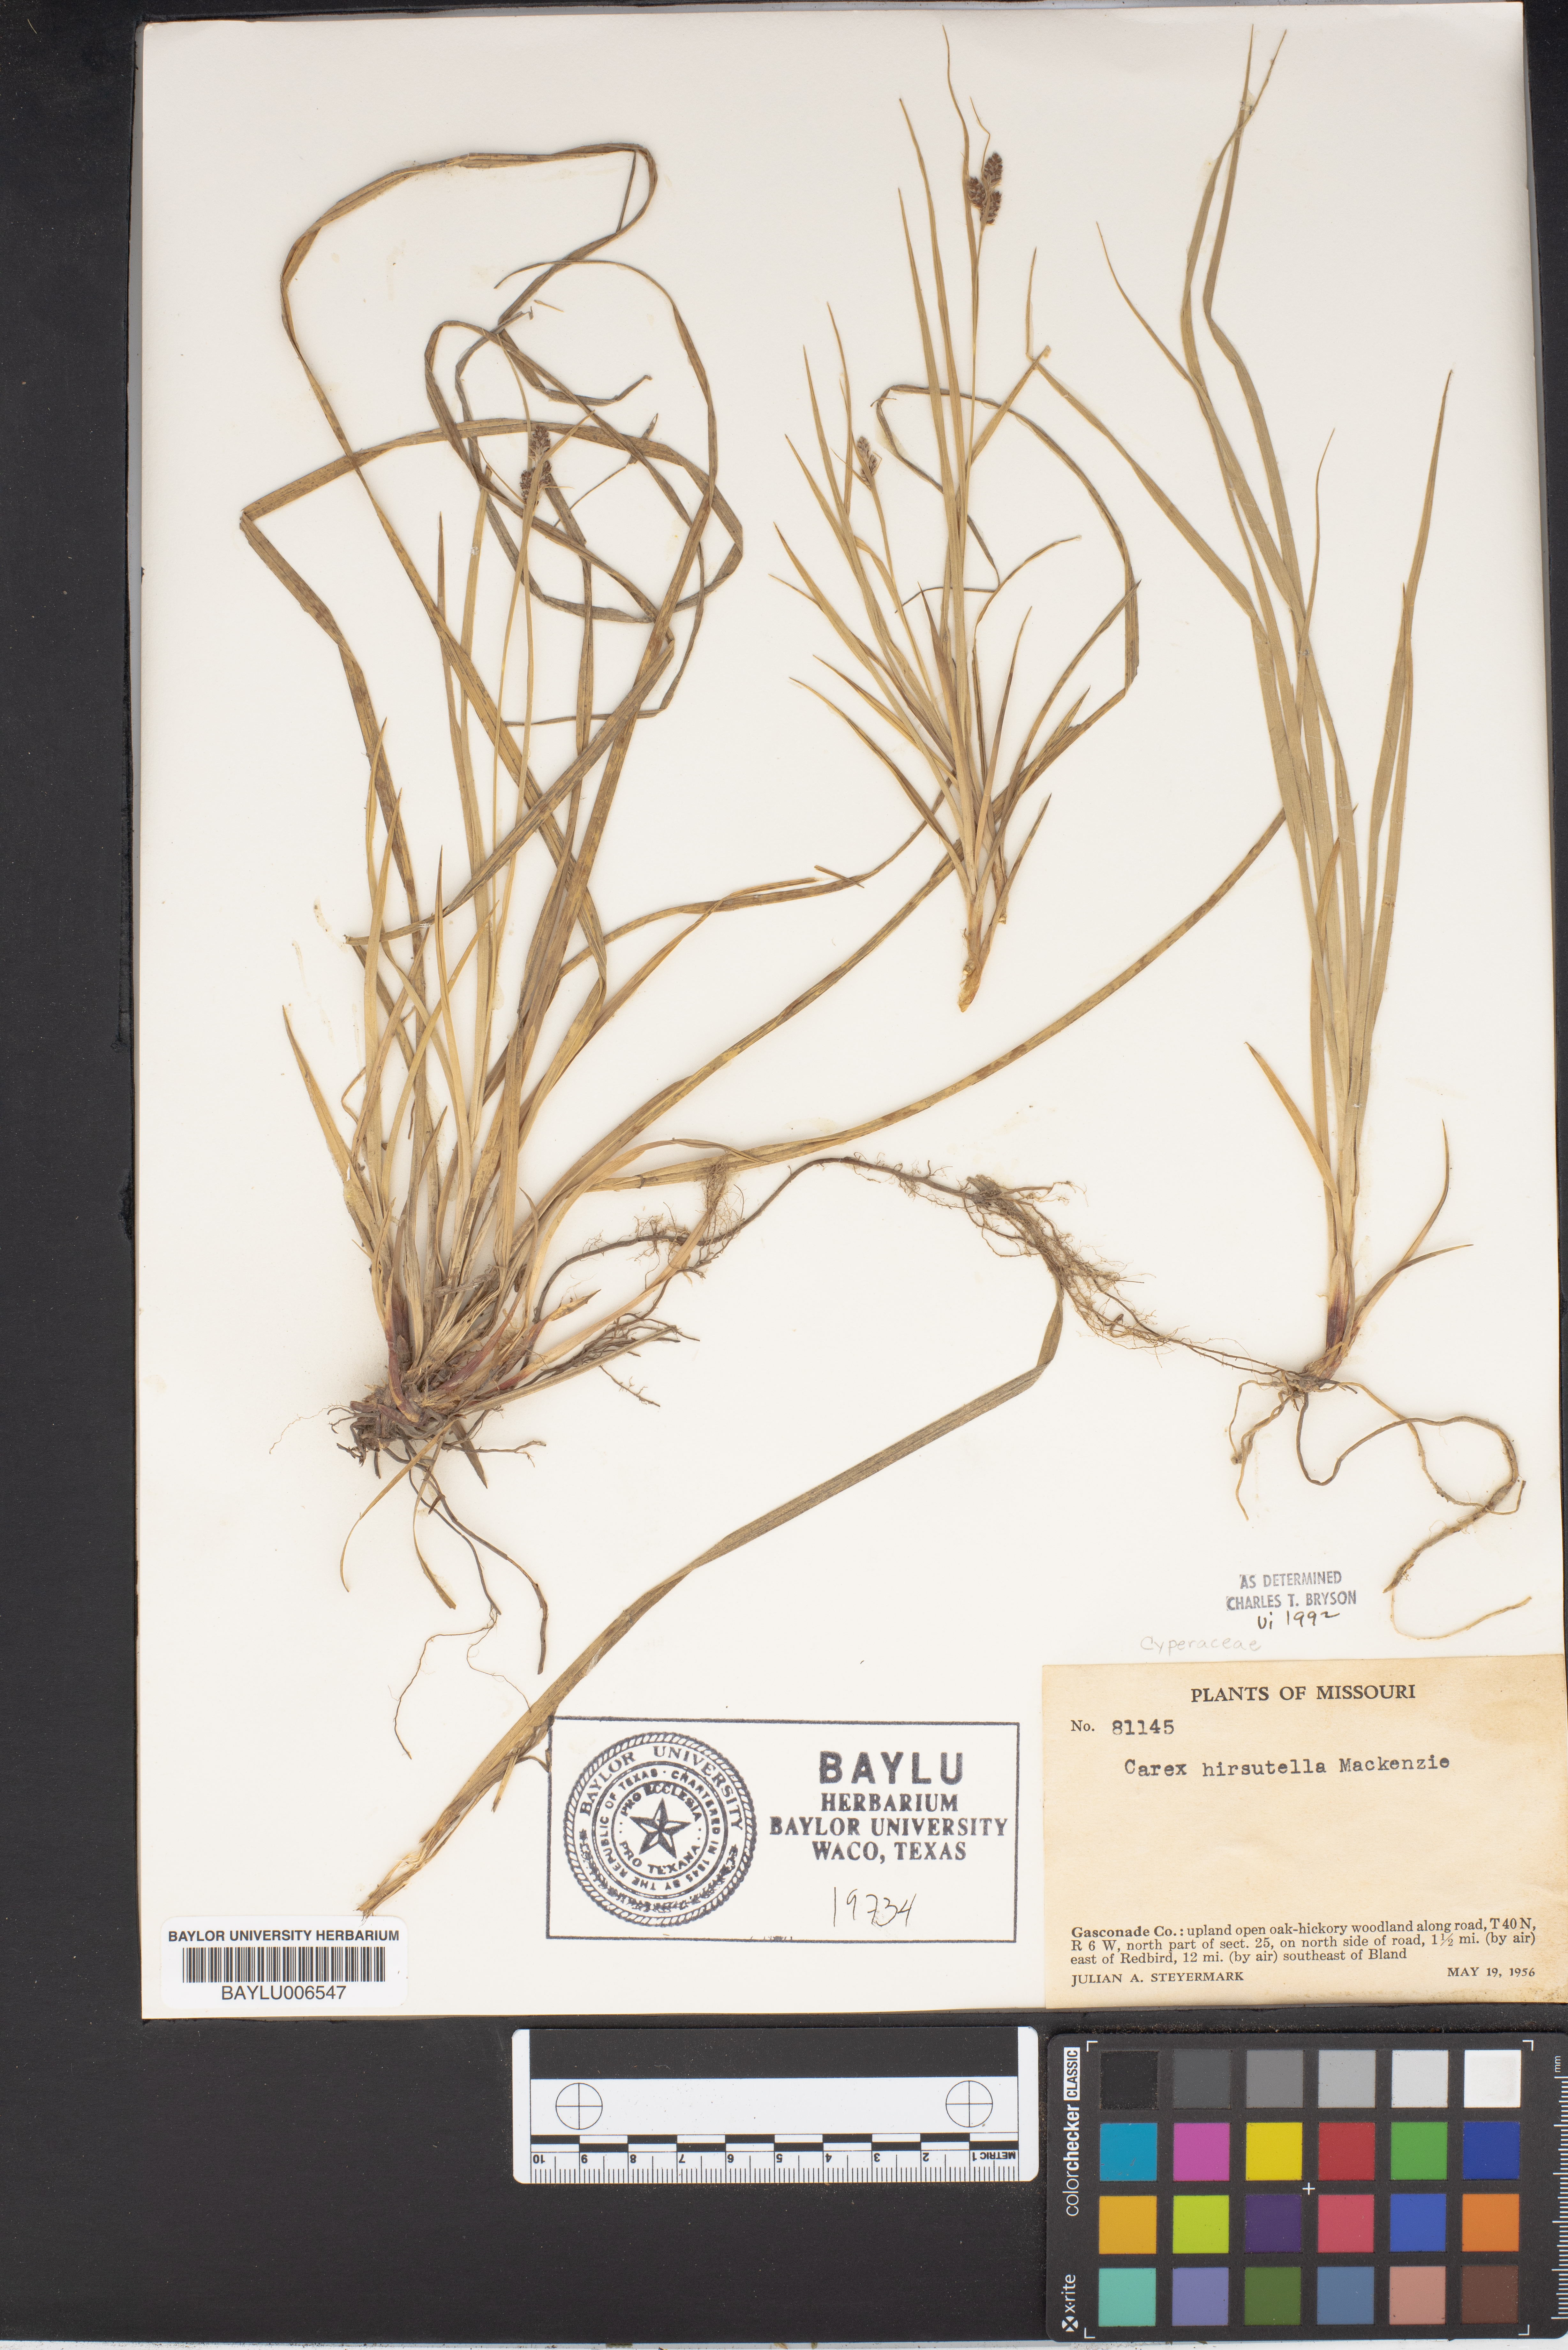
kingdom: Plantae
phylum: Tracheophyta
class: Liliopsida
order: Poales
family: Cyperaceae
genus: Carex
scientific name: Carex hirsutella
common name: Fuzzy wuzzy sedge
